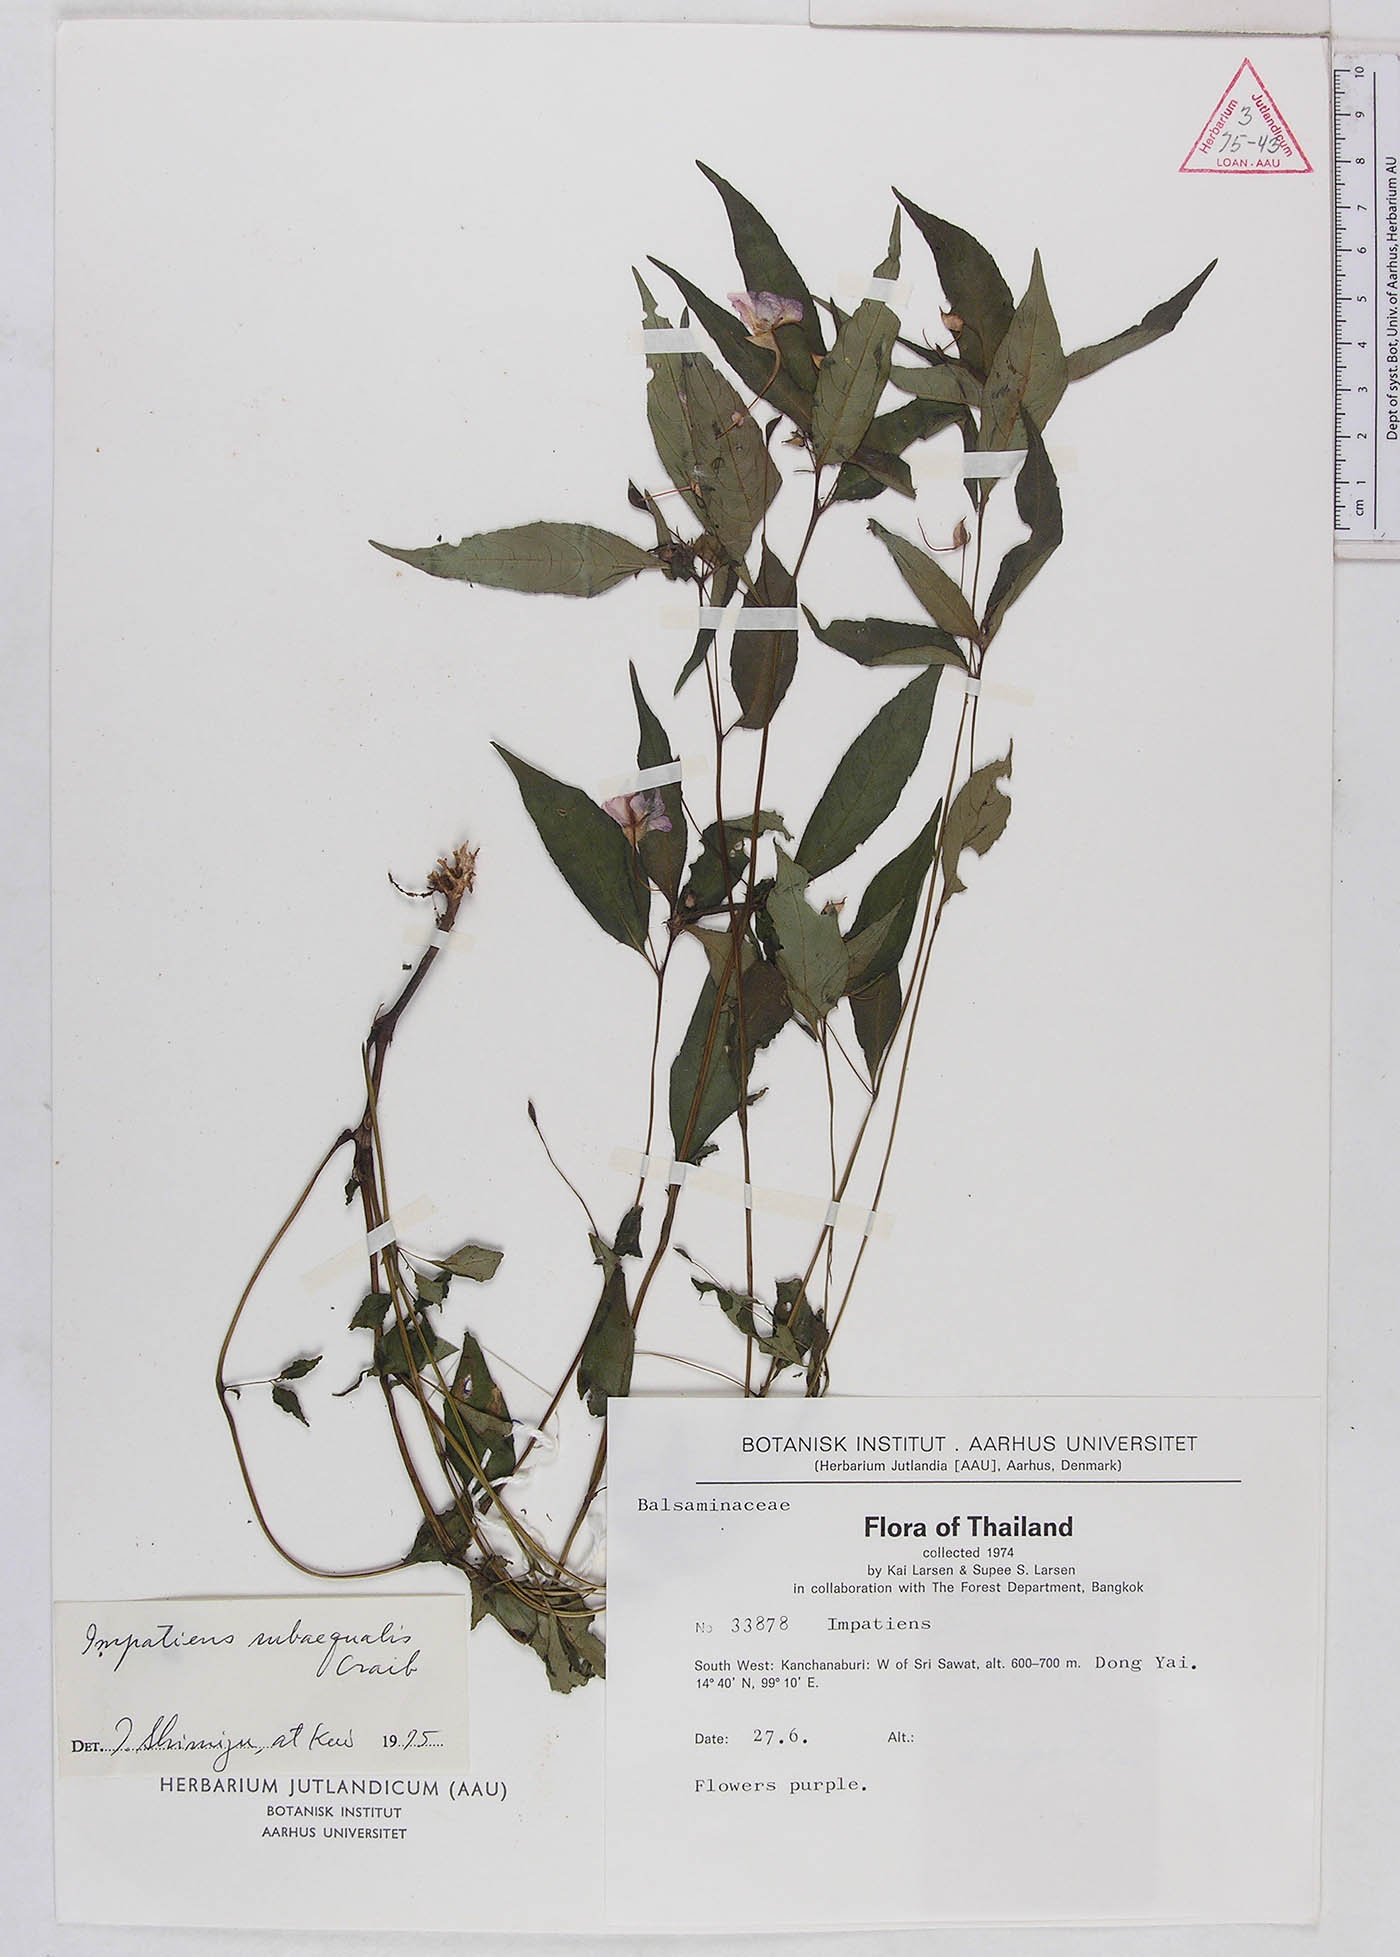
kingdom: Plantae
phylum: Tracheophyta
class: Magnoliopsida
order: Ericales
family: Balsaminaceae
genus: Impatiens
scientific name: Impatiens violiflora
